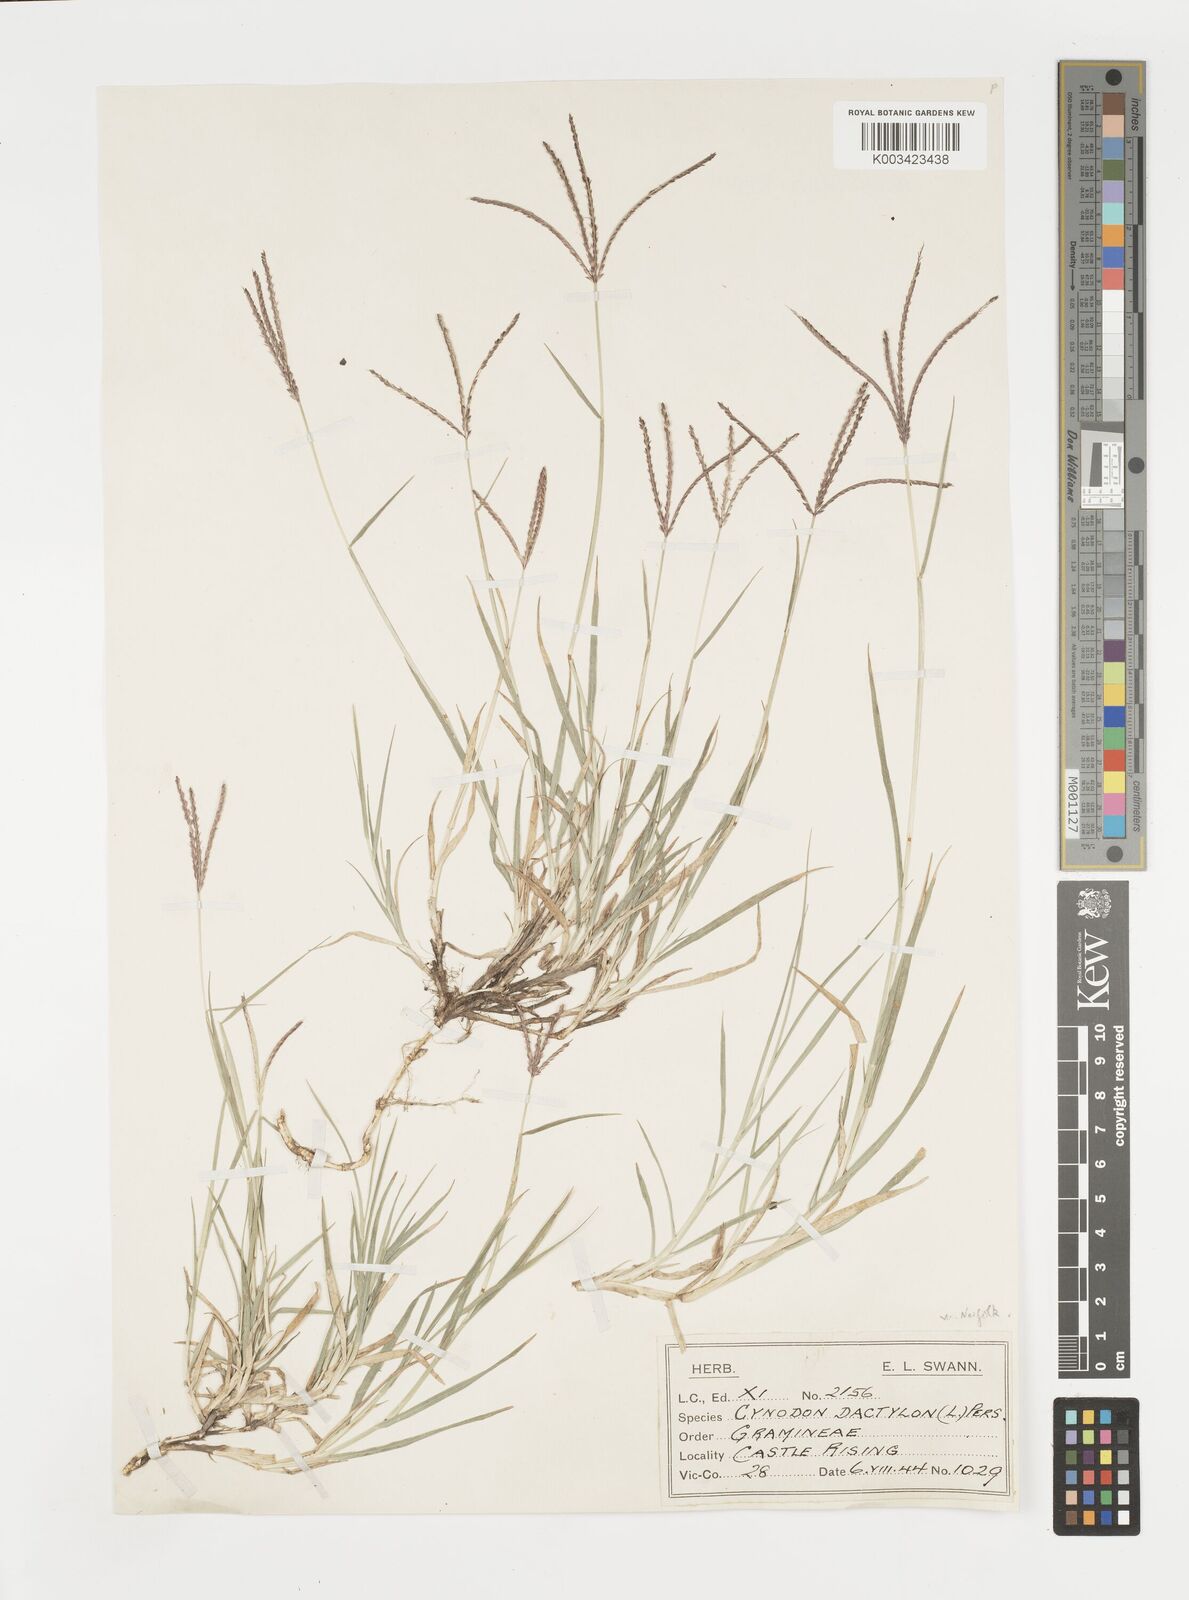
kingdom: Plantae
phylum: Tracheophyta
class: Liliopsida
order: Poales
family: Poaceae
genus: Cynodon
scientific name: Cynodon dactylon
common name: Bermuda grass
